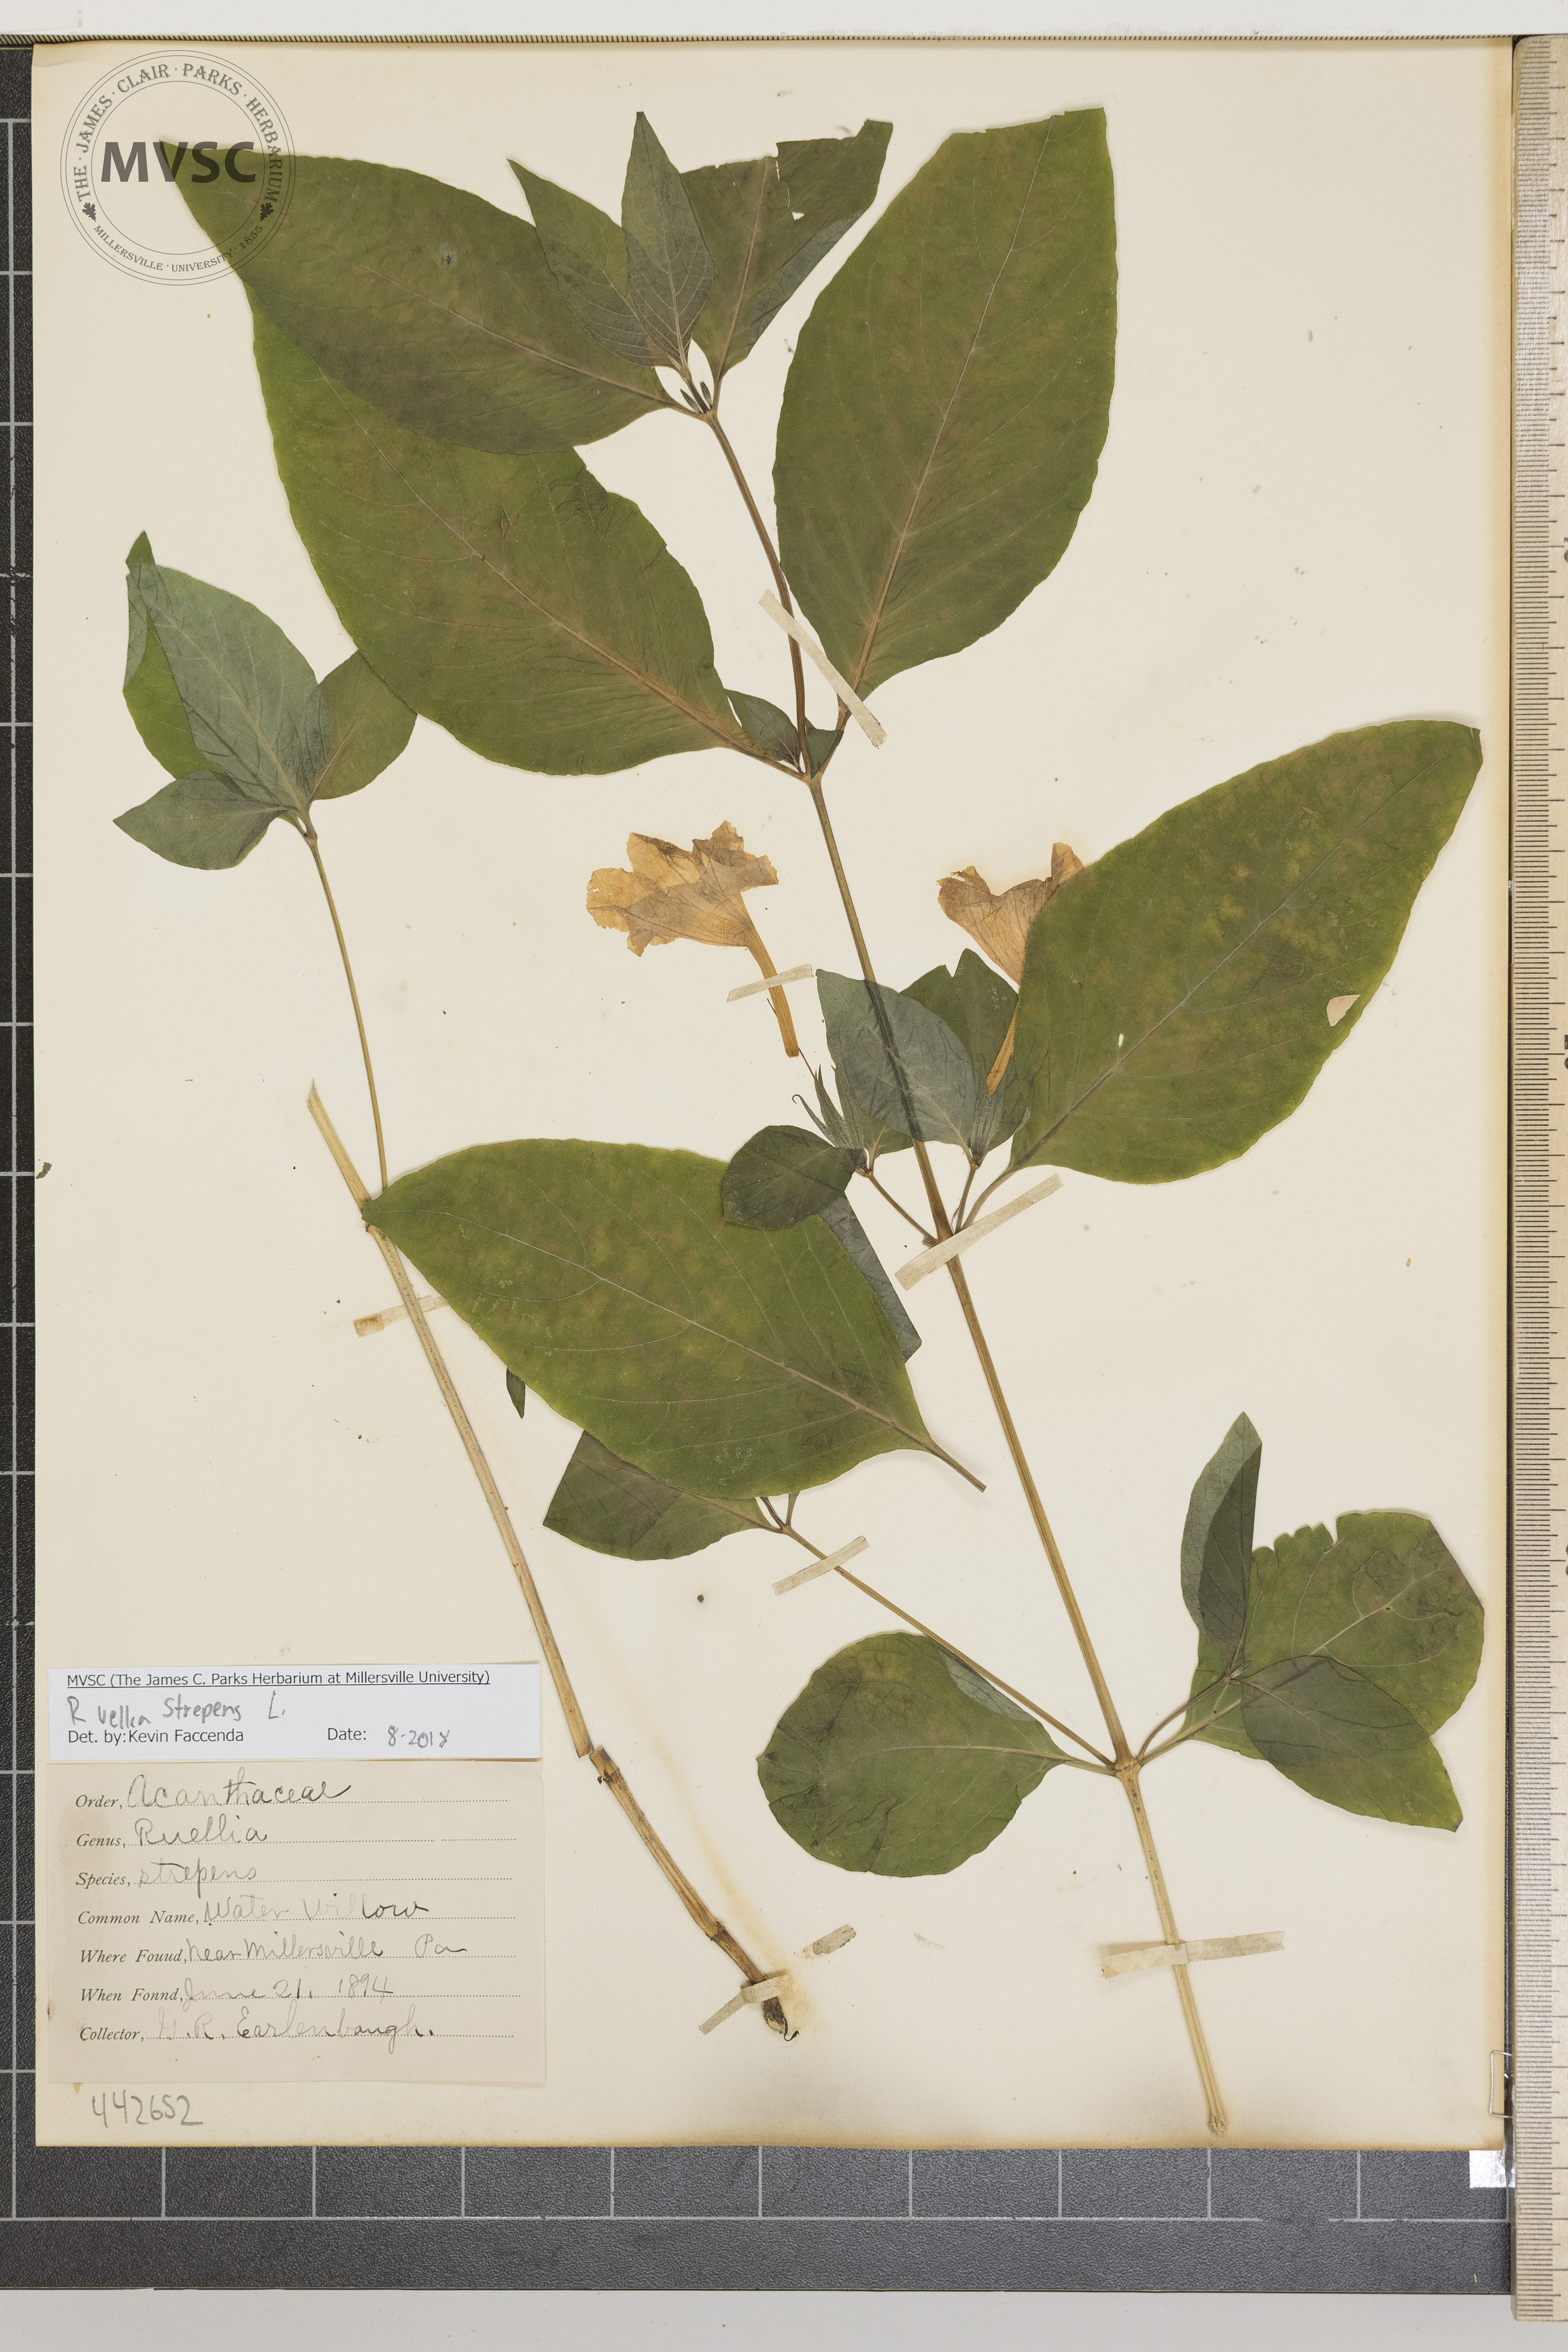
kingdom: Plantae
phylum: Tracheophyta
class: Magnoliopsida
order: Lamiales
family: Acanthaceae
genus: Ruellia
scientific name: Ruellia strepens
